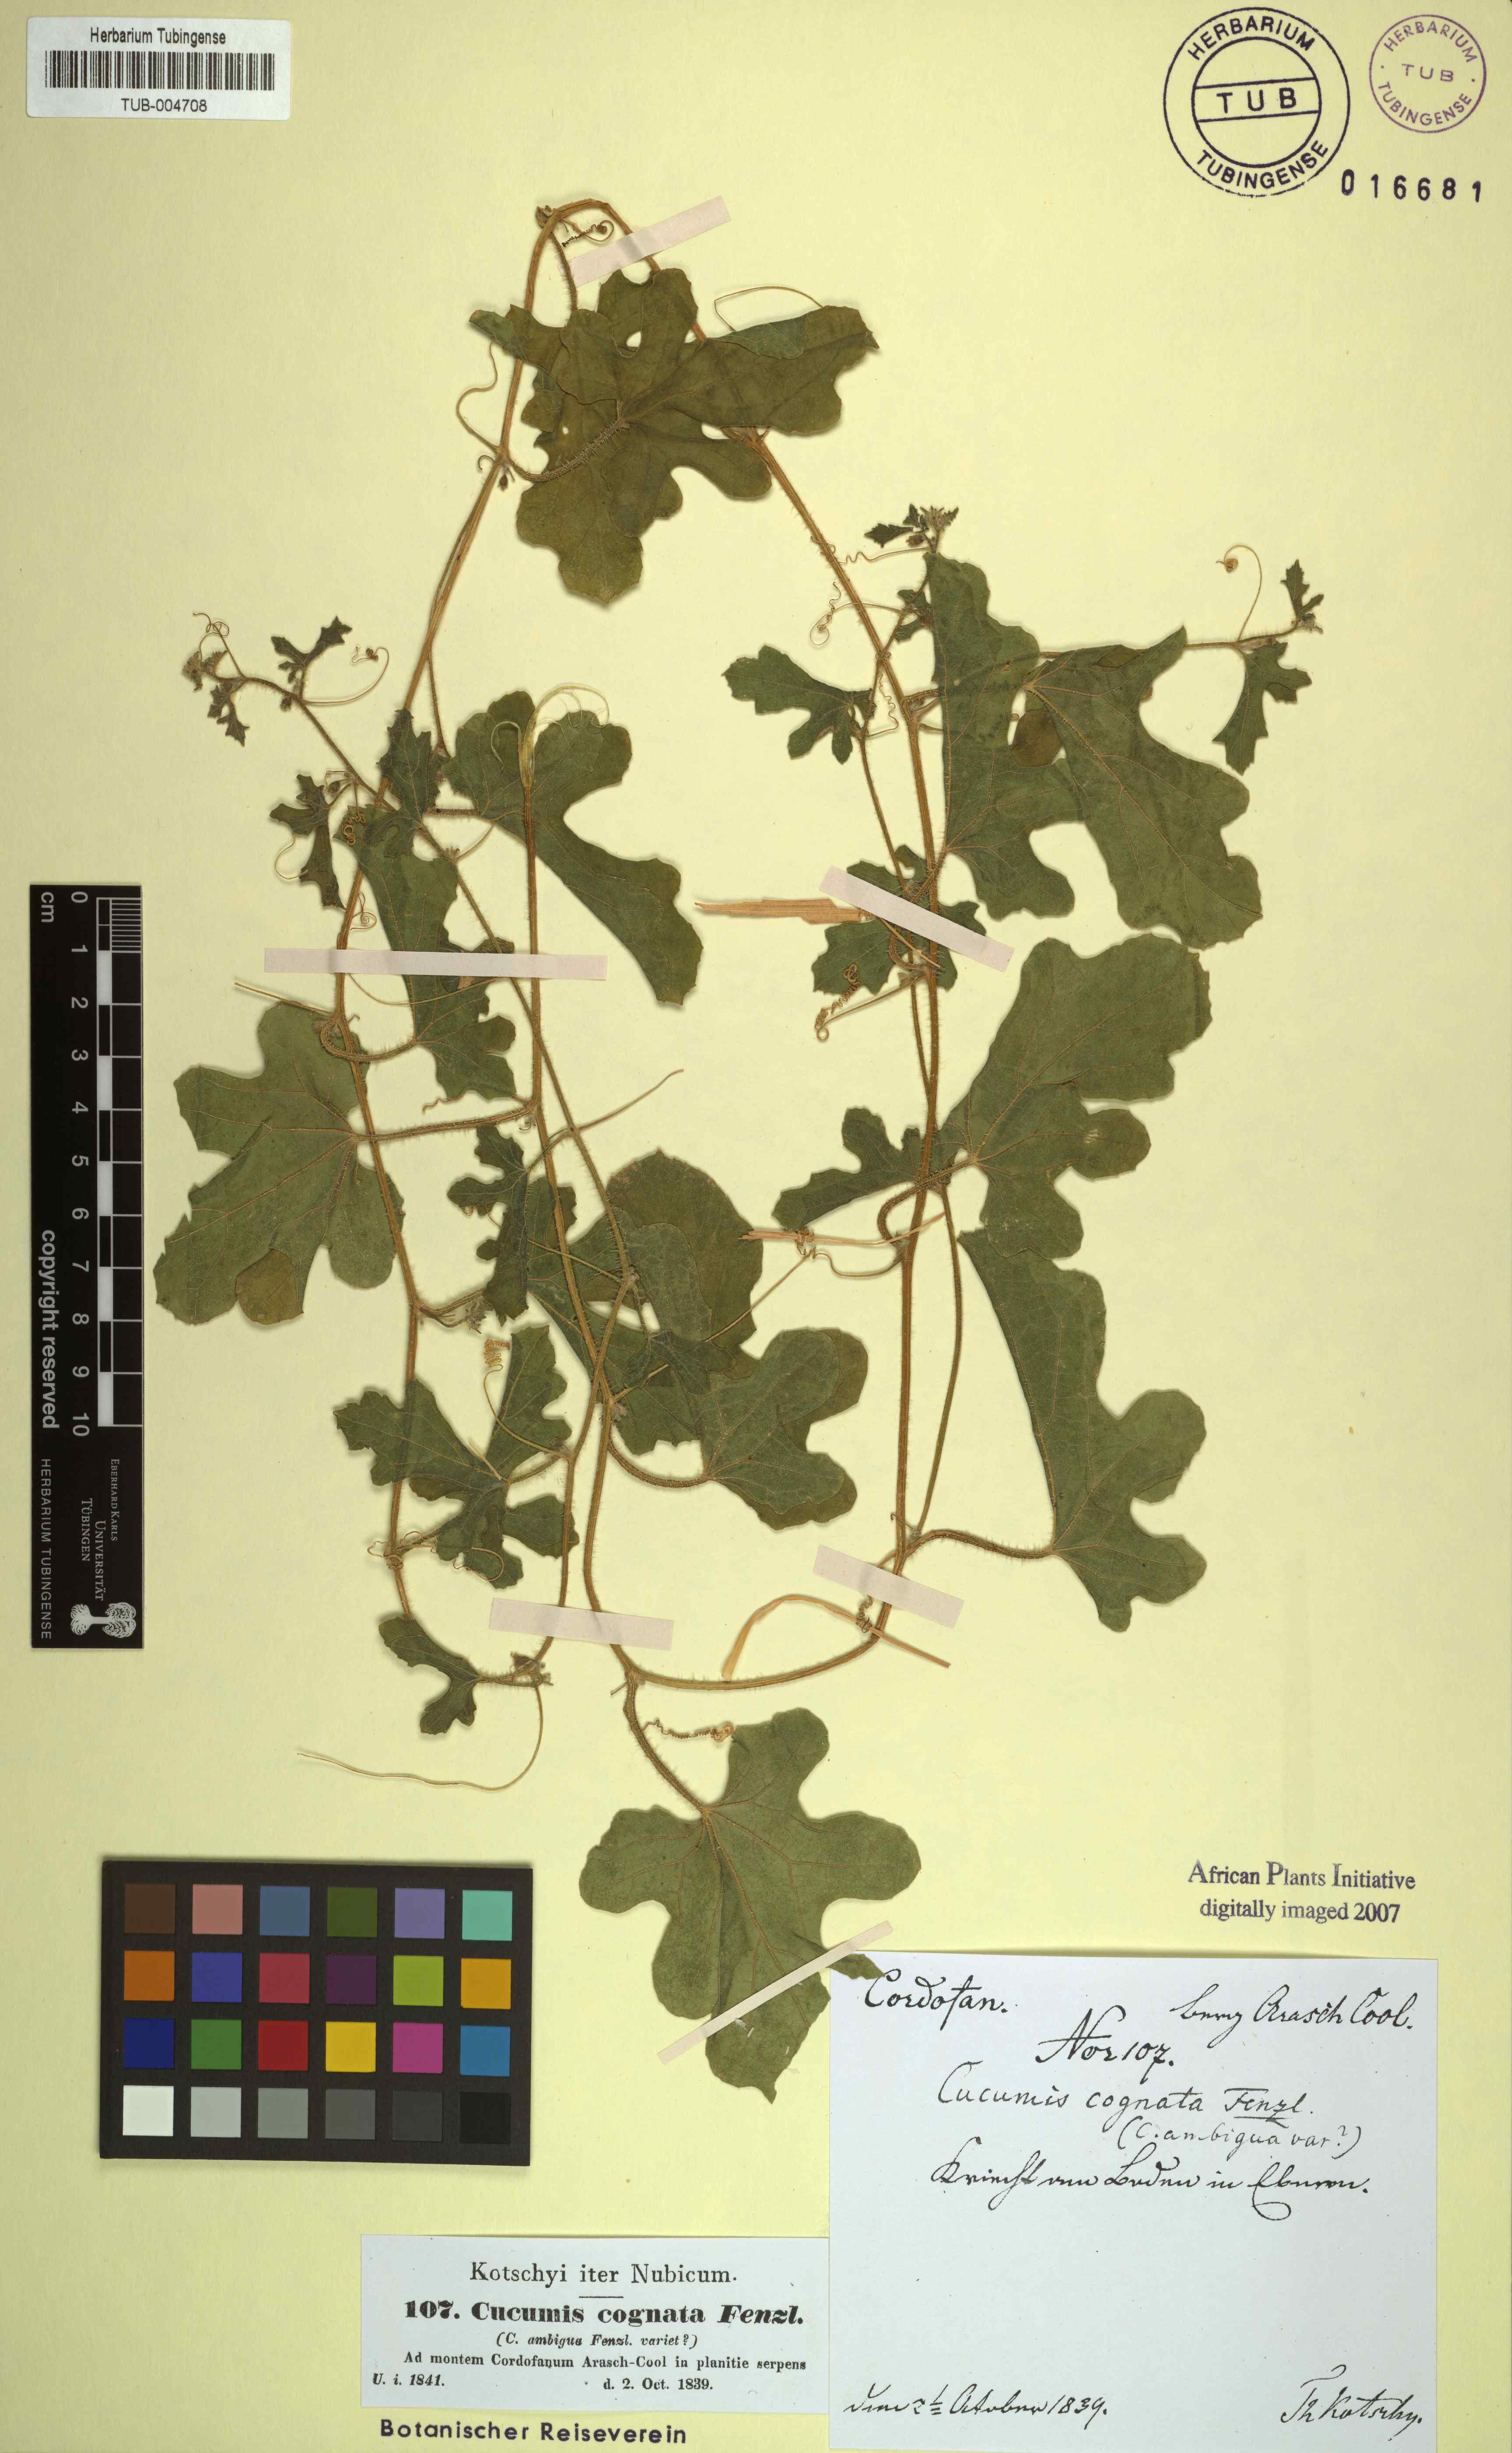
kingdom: Plantae
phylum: Tracheophyta
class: Magnoliopsida
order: Cucurbitales
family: Cucurbitaceae
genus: Cucumis
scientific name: Cucumis melo
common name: Melon
